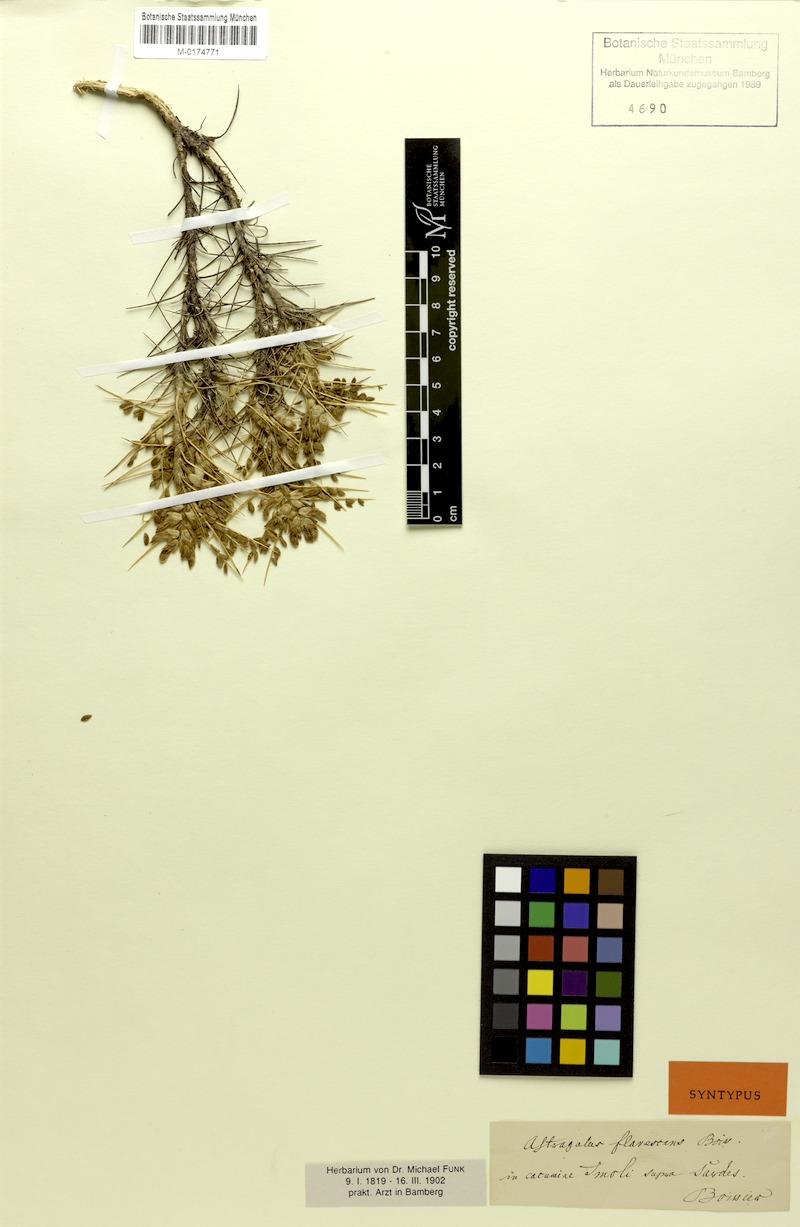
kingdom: Plantae
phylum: Tracheophyta
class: Magnoliopsida
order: Fabales
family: Fabaceae
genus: Astragalus
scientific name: Astragalus flavescens
